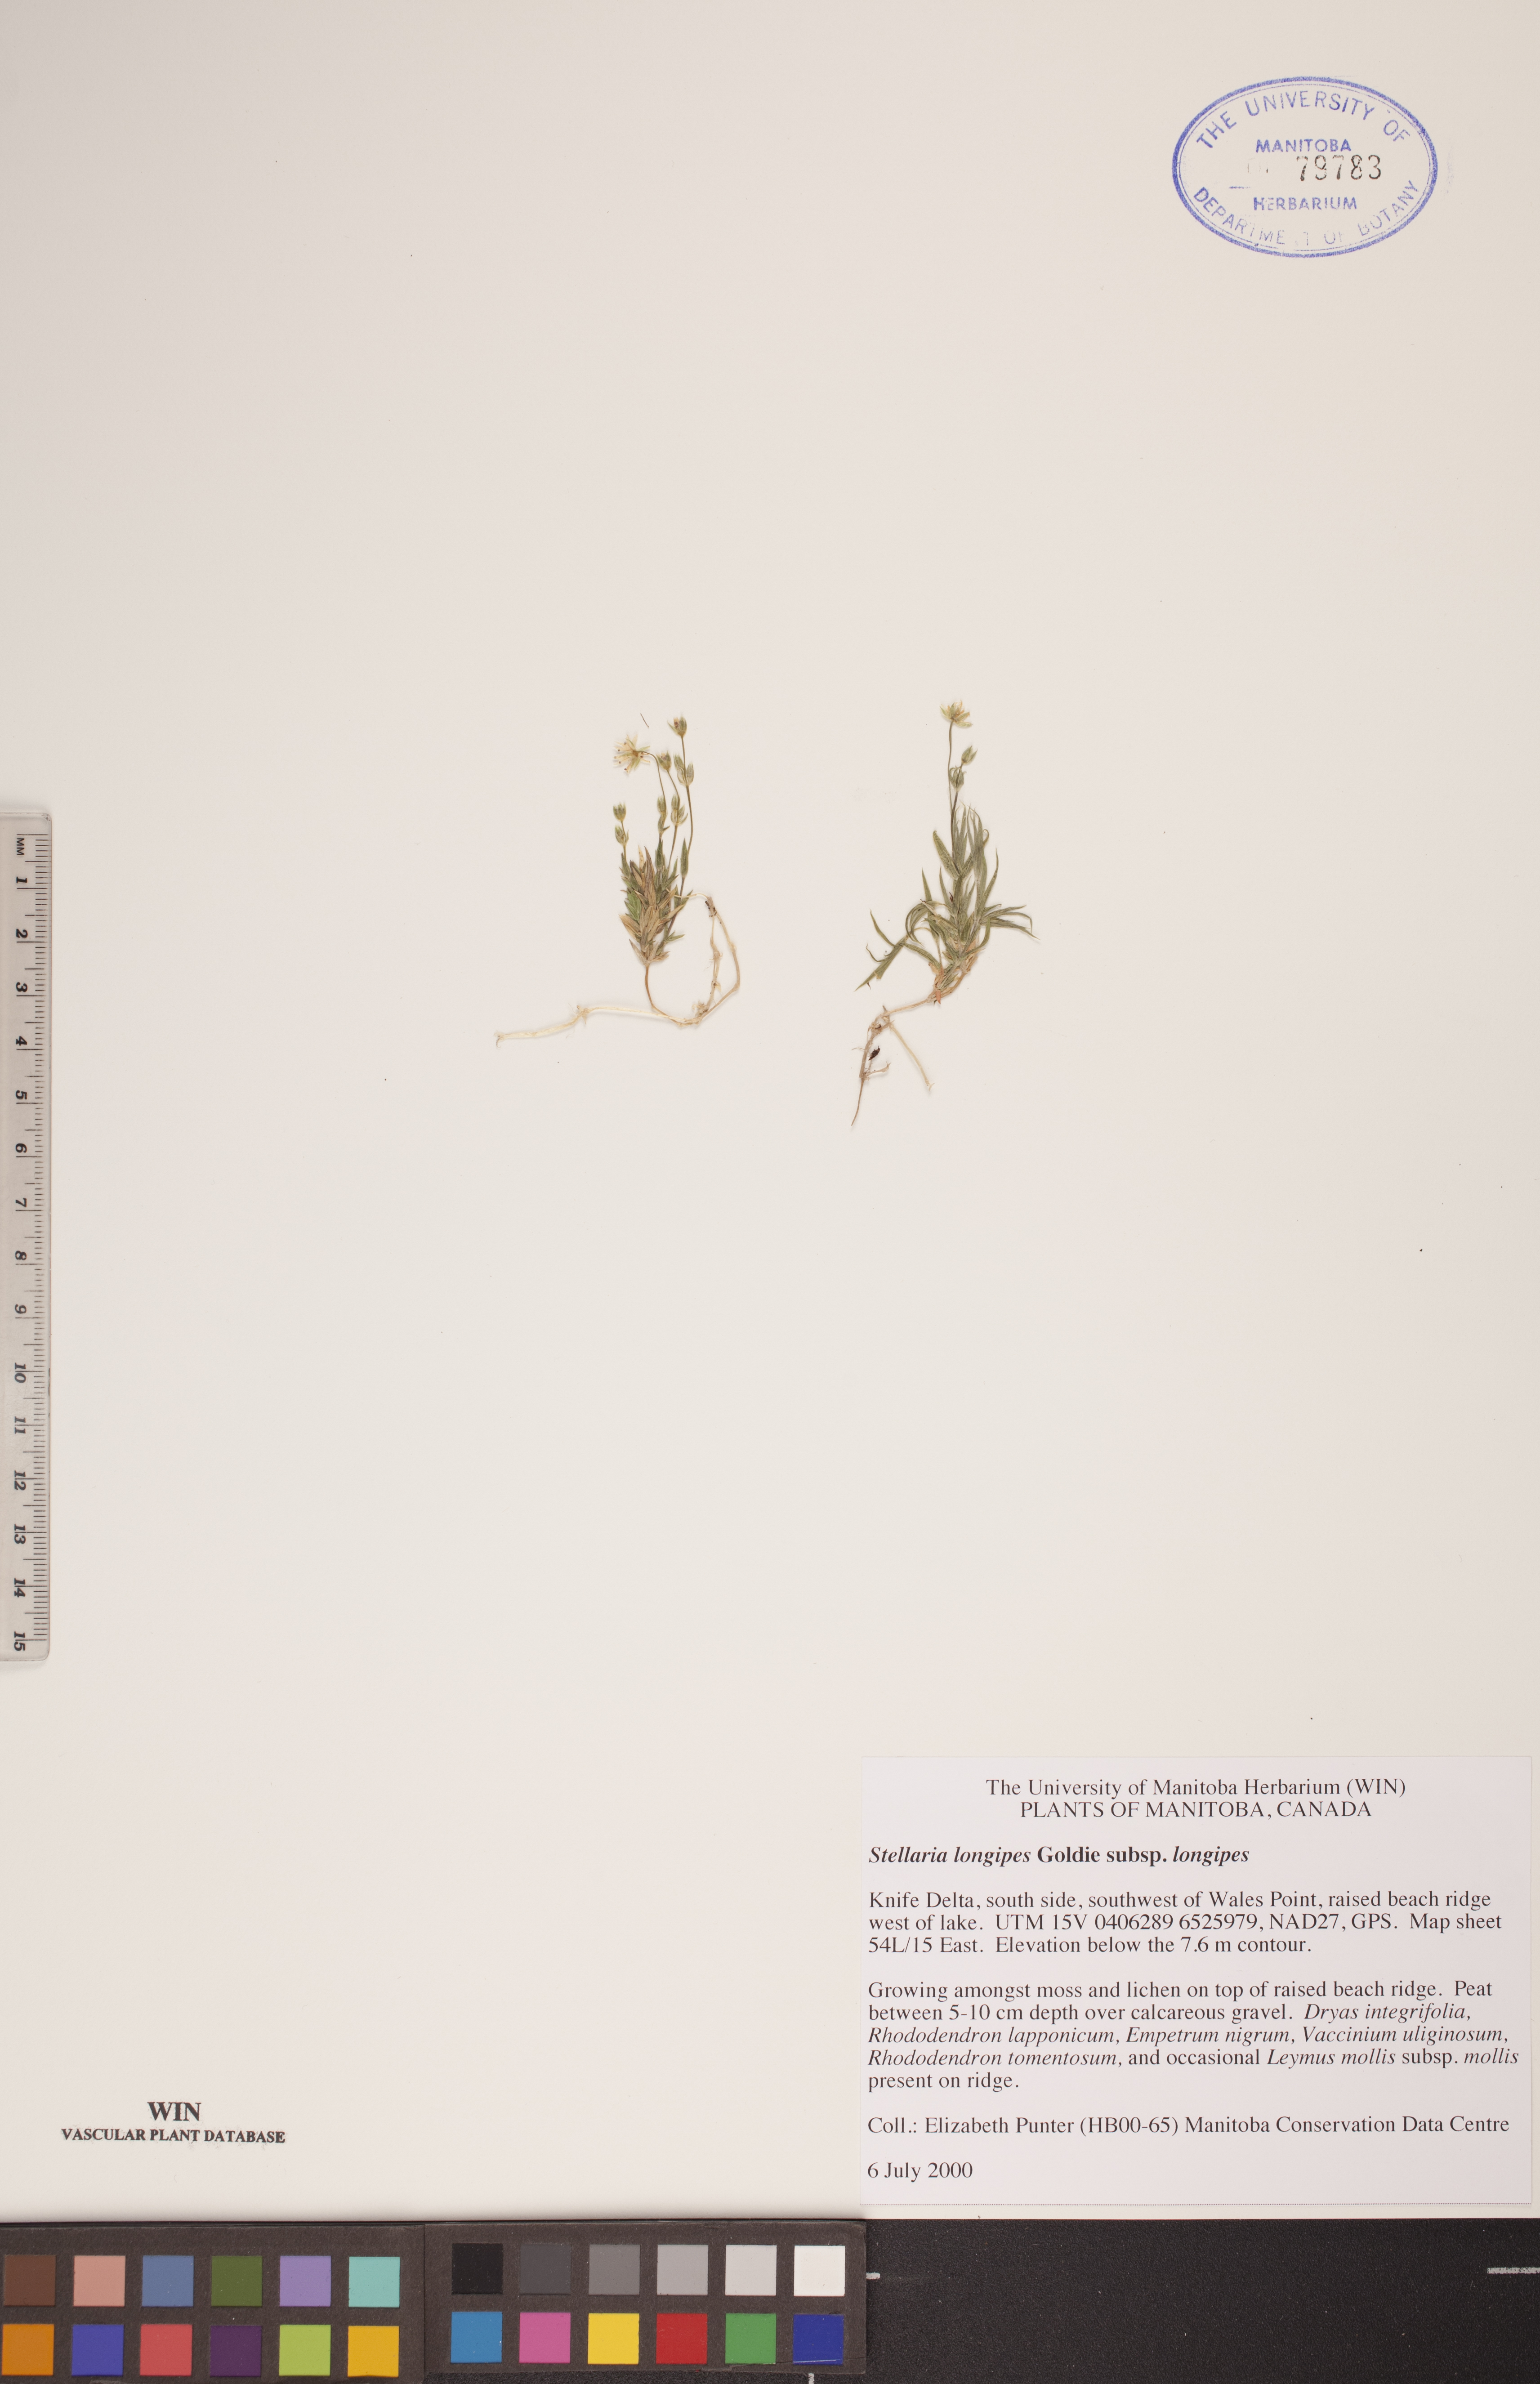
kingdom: Plantae
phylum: Tracheophyta
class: Magnoliopsida
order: Caryophyllales
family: Caryophyllaceae
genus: Stellaria
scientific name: Stellaria longipes
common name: Goldie's starwort
